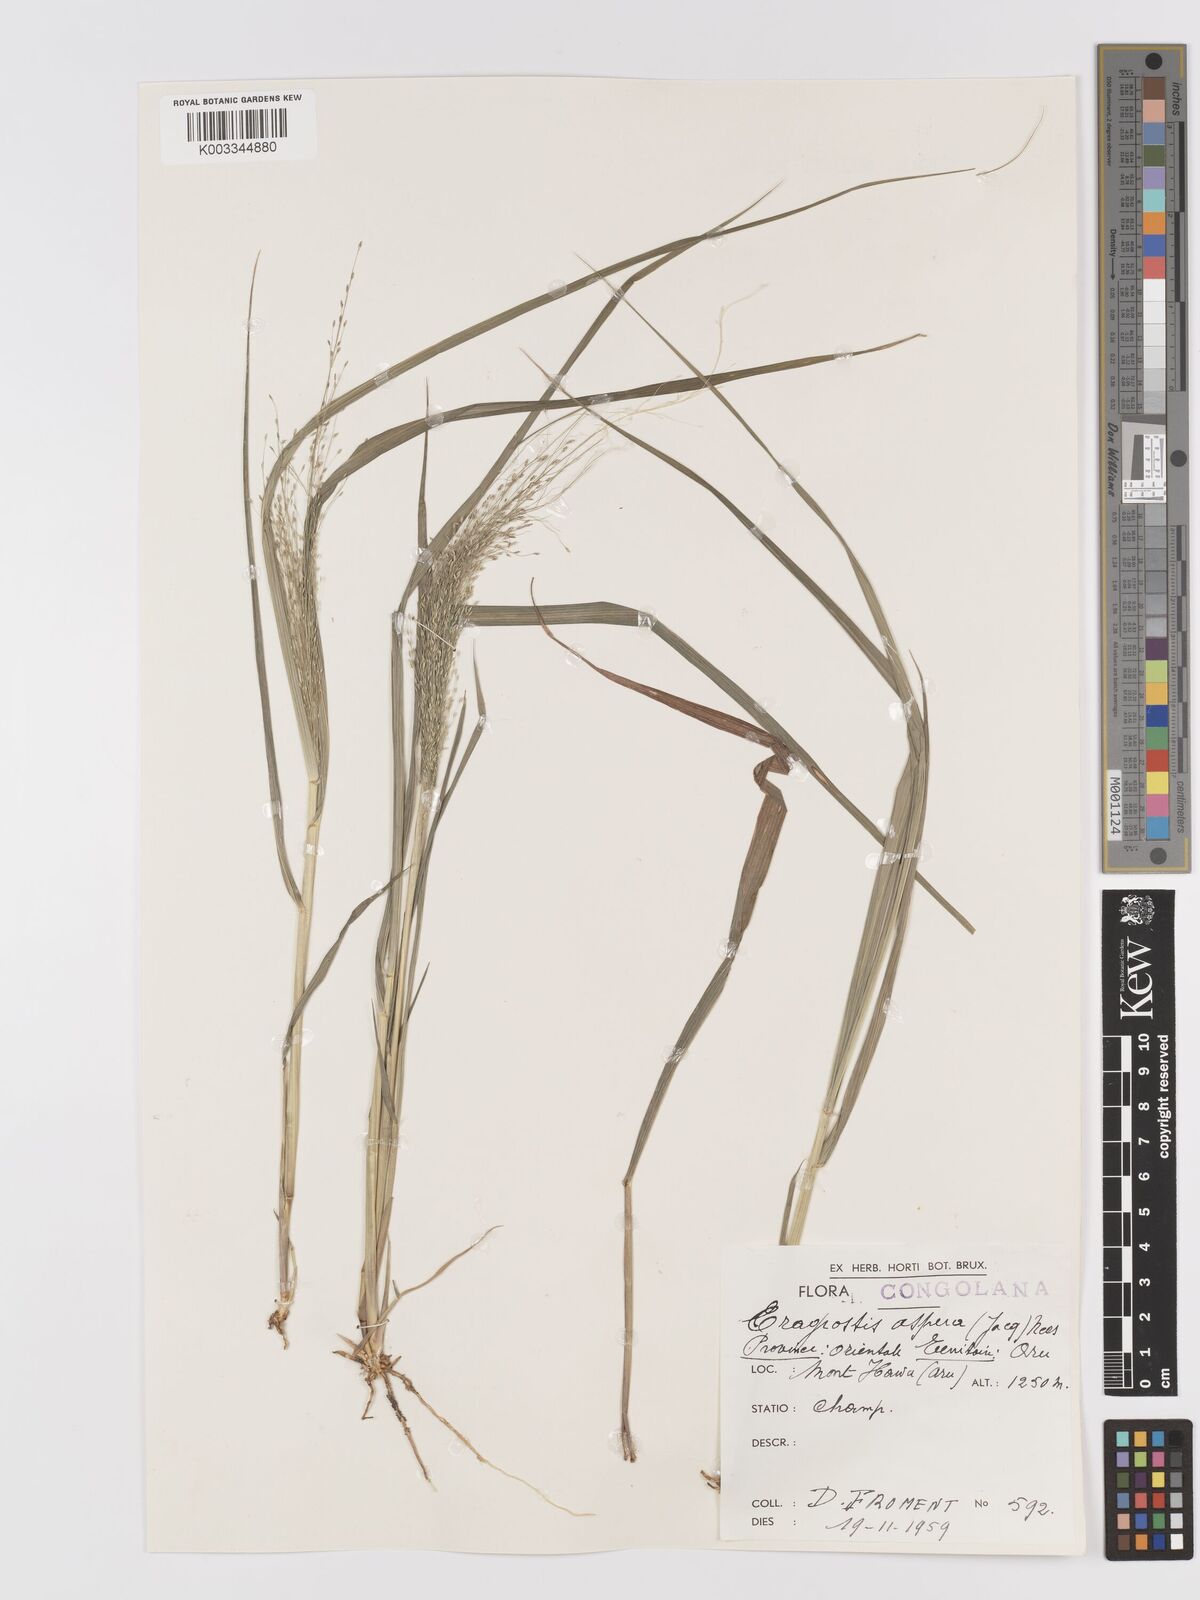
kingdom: Plantae
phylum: Tracheophyta
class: Liliopsida
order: Poales
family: Poaceae
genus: Eragrostis
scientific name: Eragrostis aspera
